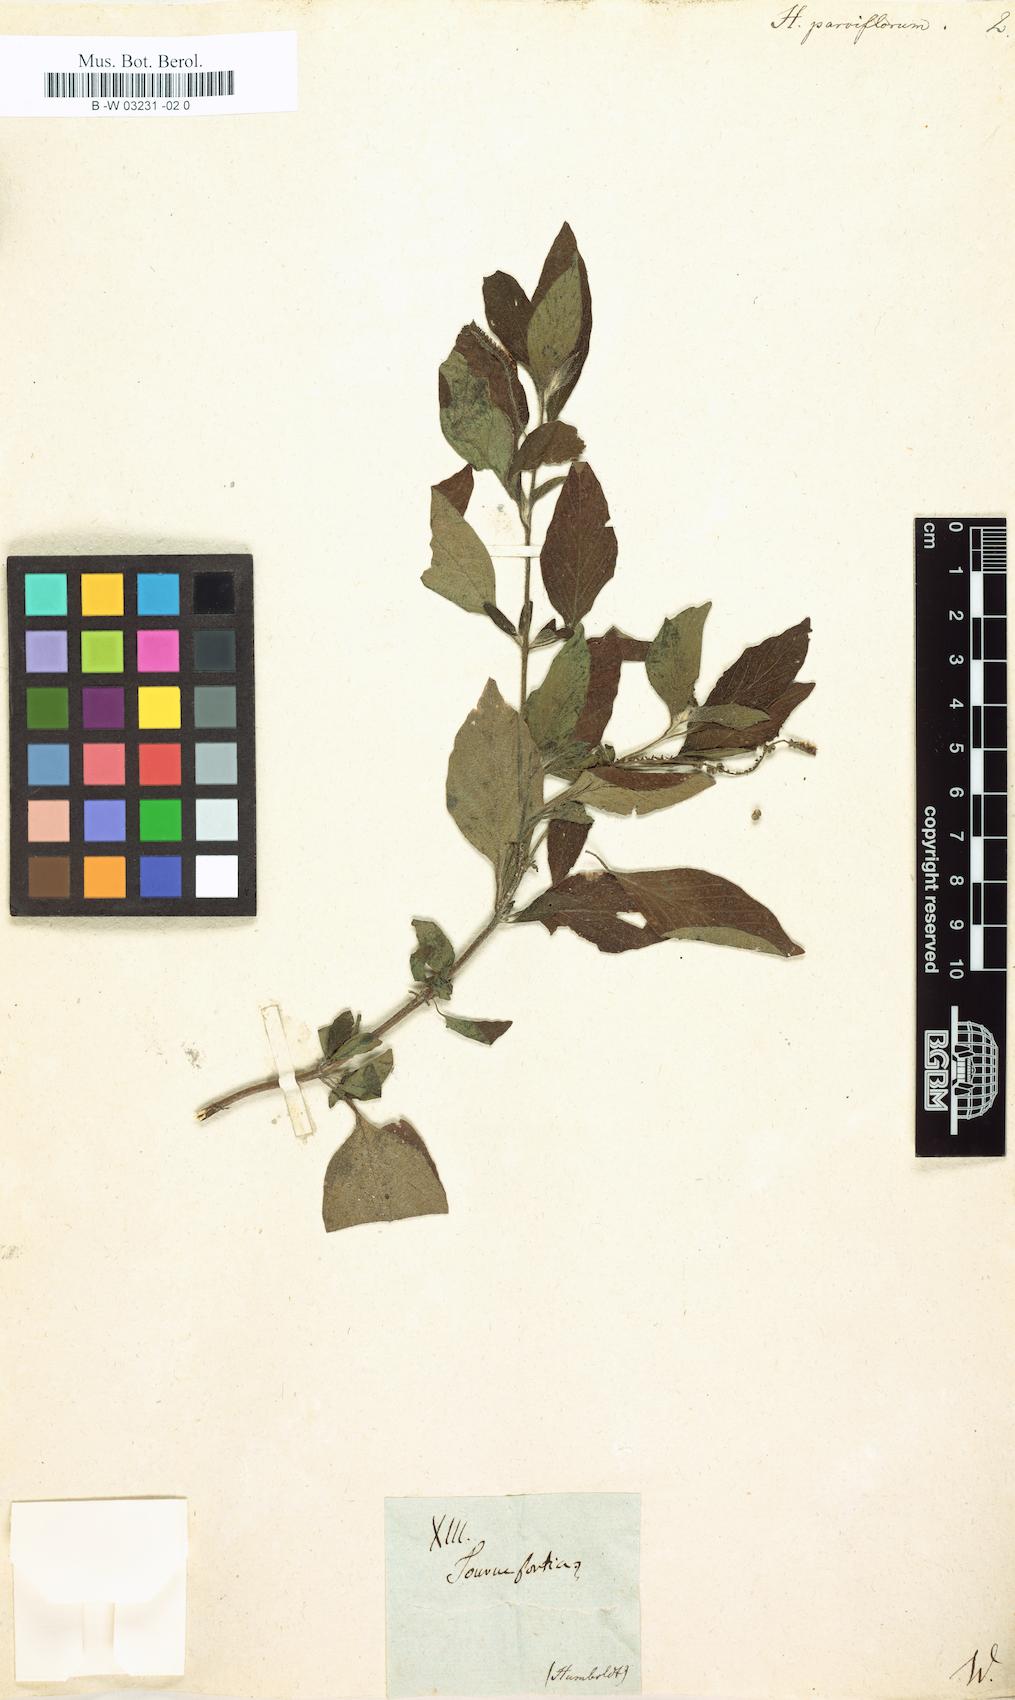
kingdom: Plantae
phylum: Tracheophyta
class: Magnoliopsida
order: Boraginales
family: Heliotropiaceae
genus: Heliotropium
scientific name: Heliotropium angiospermum
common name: Eye bright
